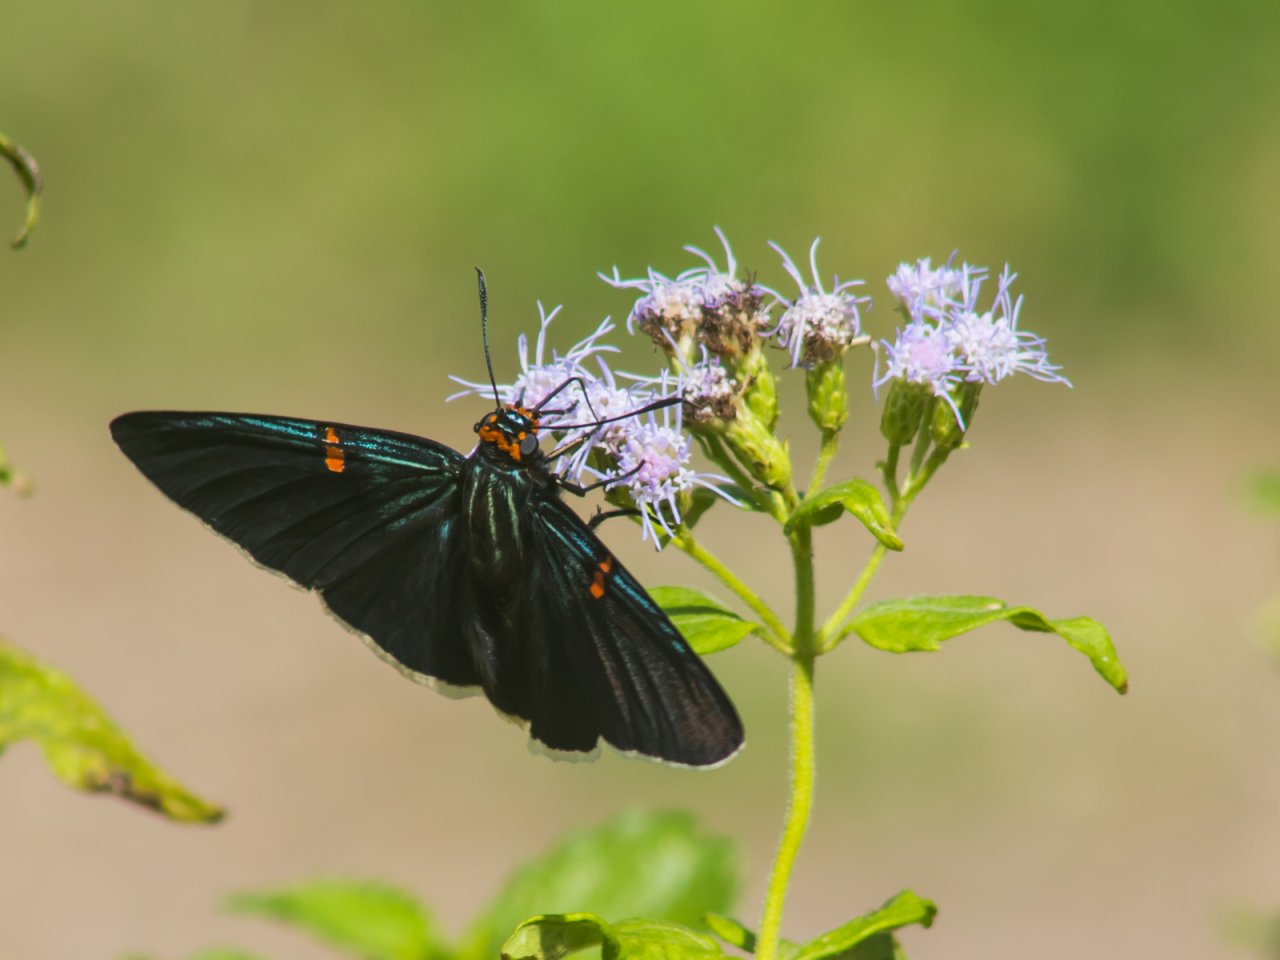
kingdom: Animalia
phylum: Arthropoda
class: Insecta
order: Lepidoptera
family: Hesperiidae
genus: Phocides
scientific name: Phocides polybius
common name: Guava Skipper
